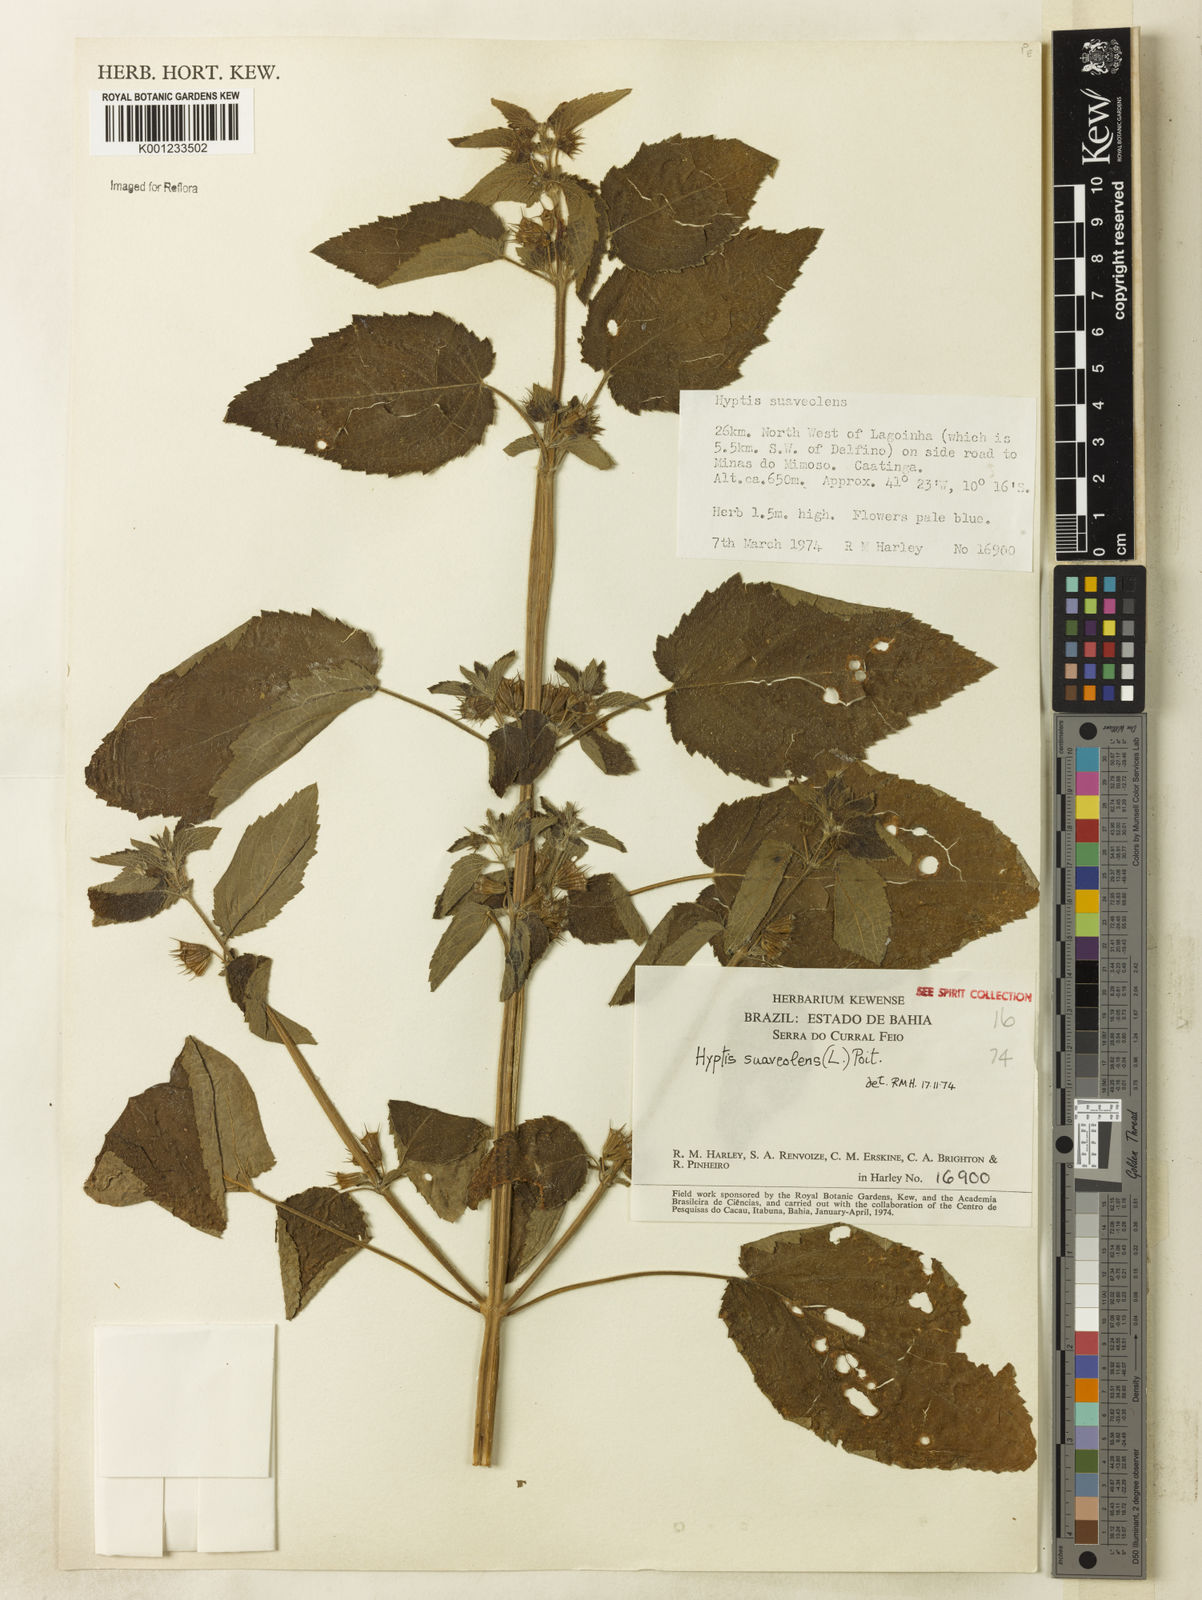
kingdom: Plantae
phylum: Tracheophyta
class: Magnoliopsida
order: Lamiales
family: Lamiaceae
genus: Mesosphaerum
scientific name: Mesosphaerum suaveolens
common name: Pignut
